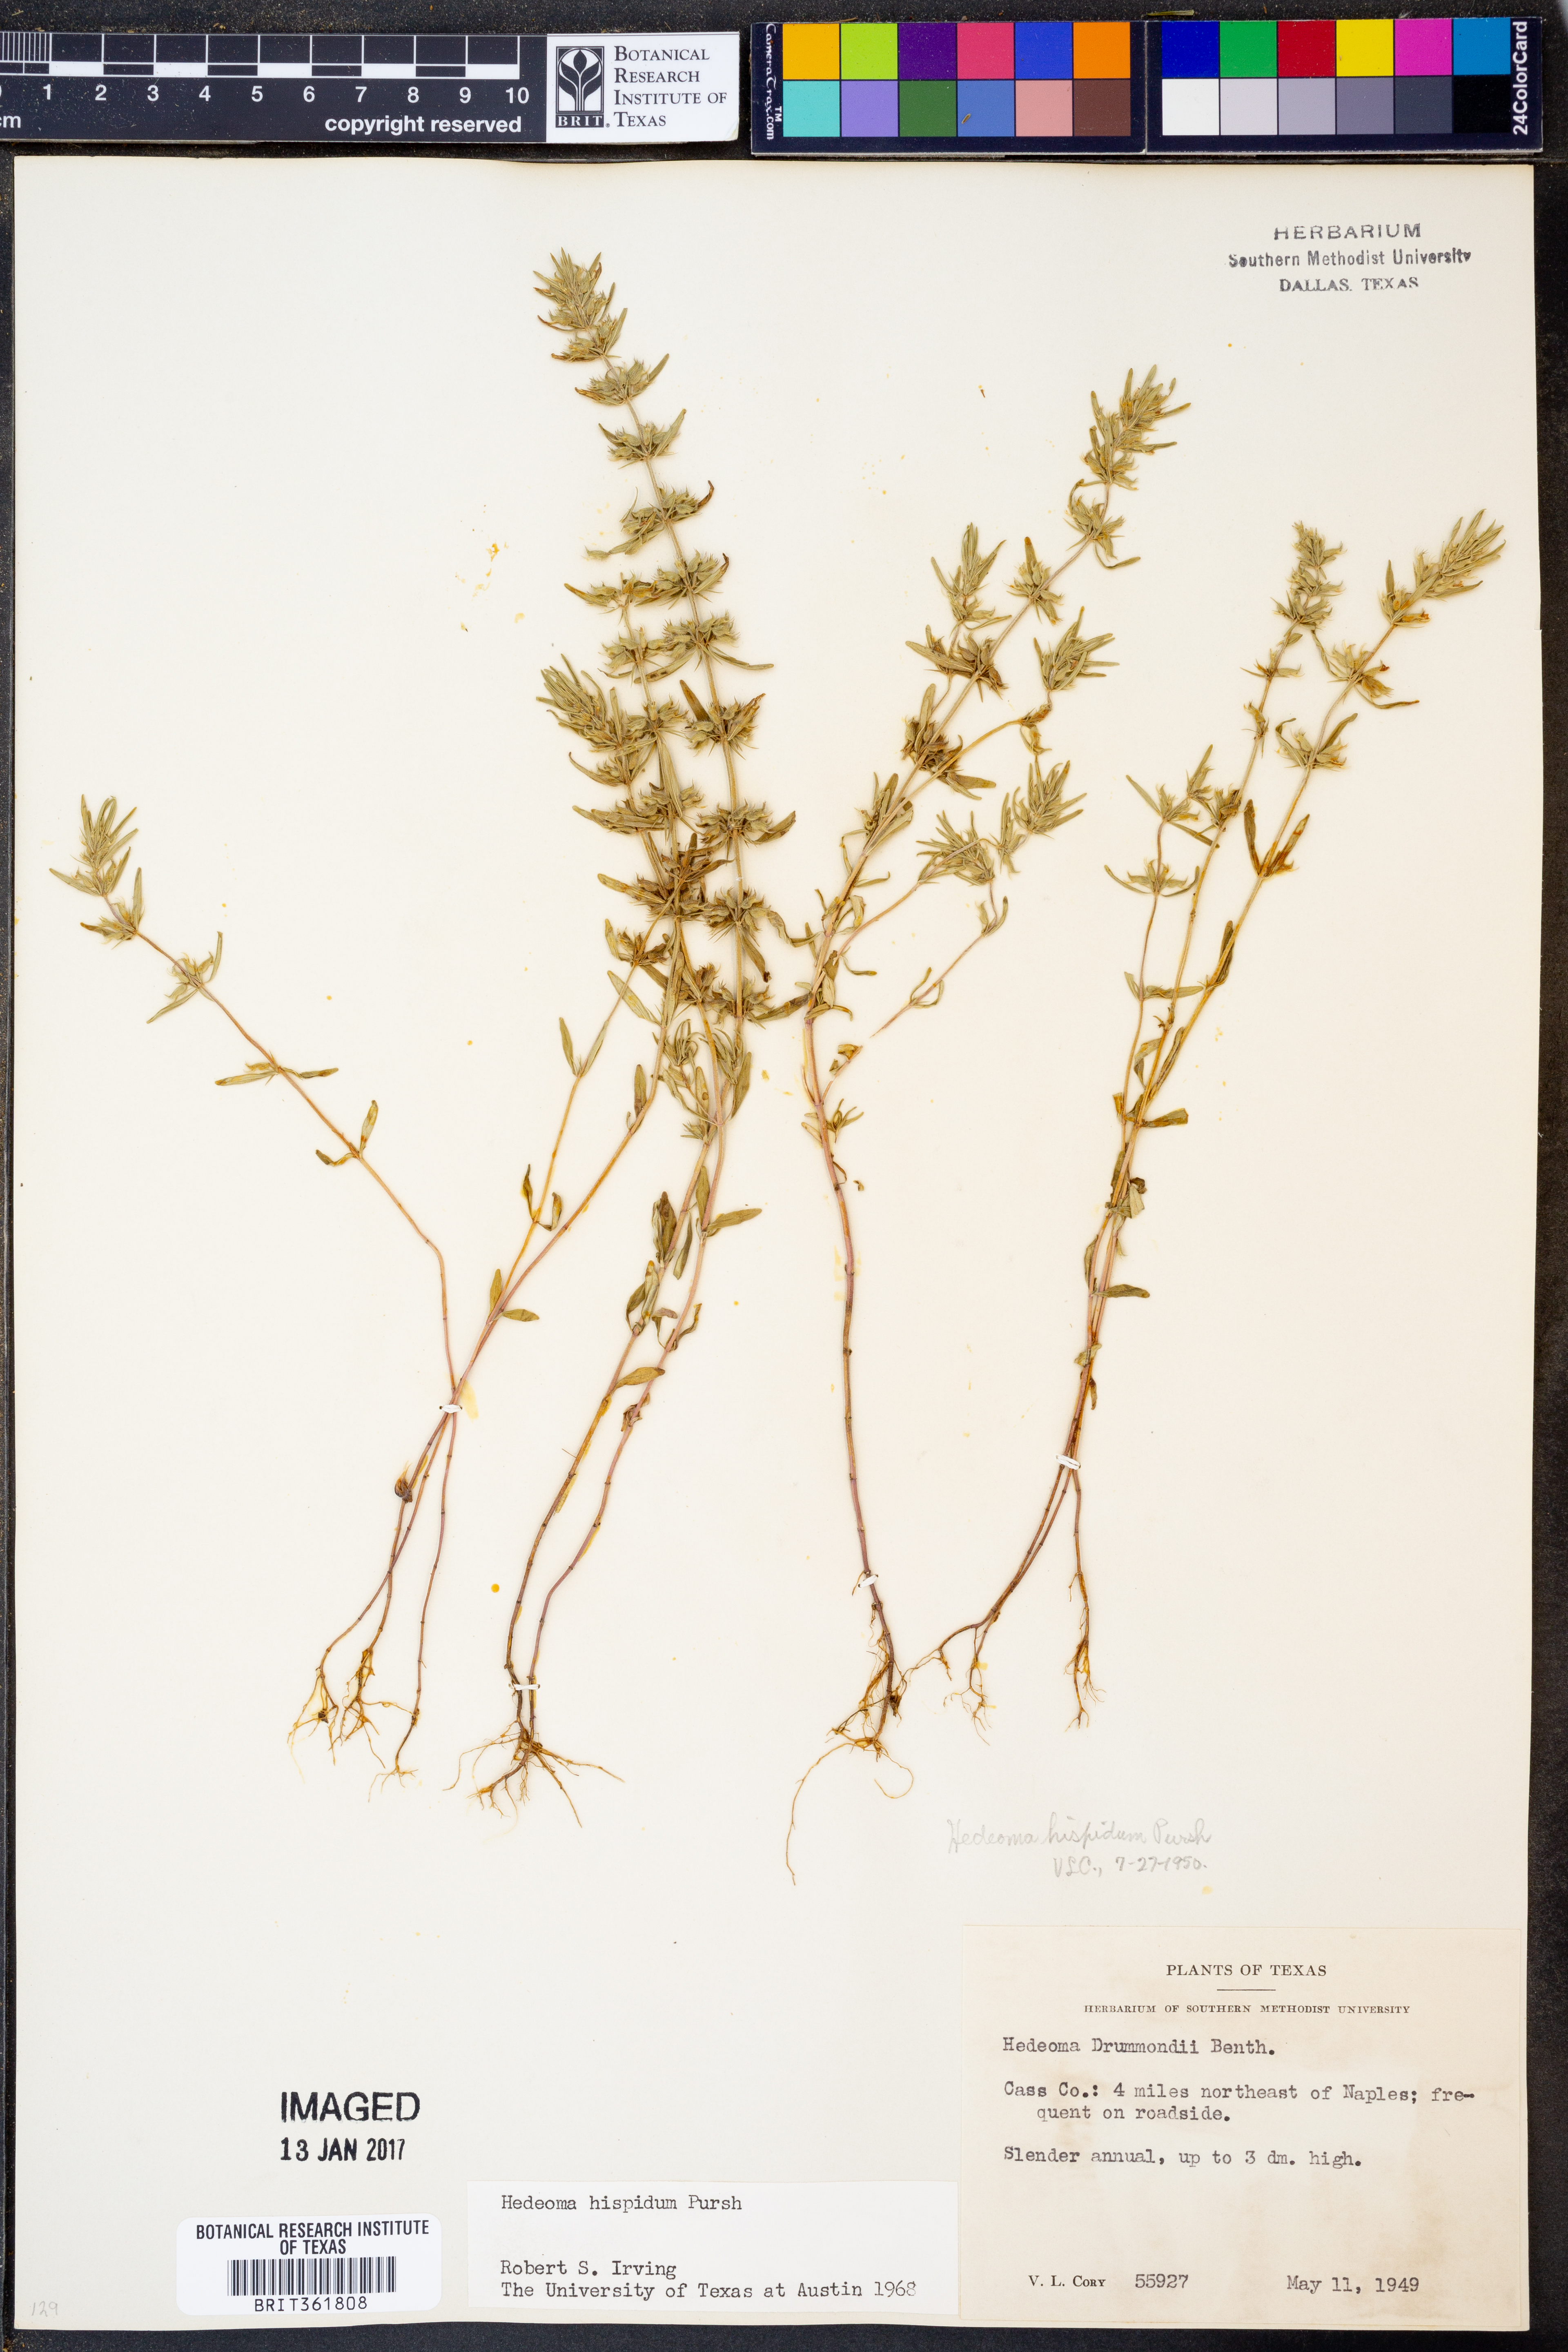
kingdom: Plantae
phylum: Tracheophyta
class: Magnoliopsida
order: Lamiales
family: Lamiaceae
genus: Hedeoma
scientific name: Hedeoma hispida
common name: Mock pennyroyal
